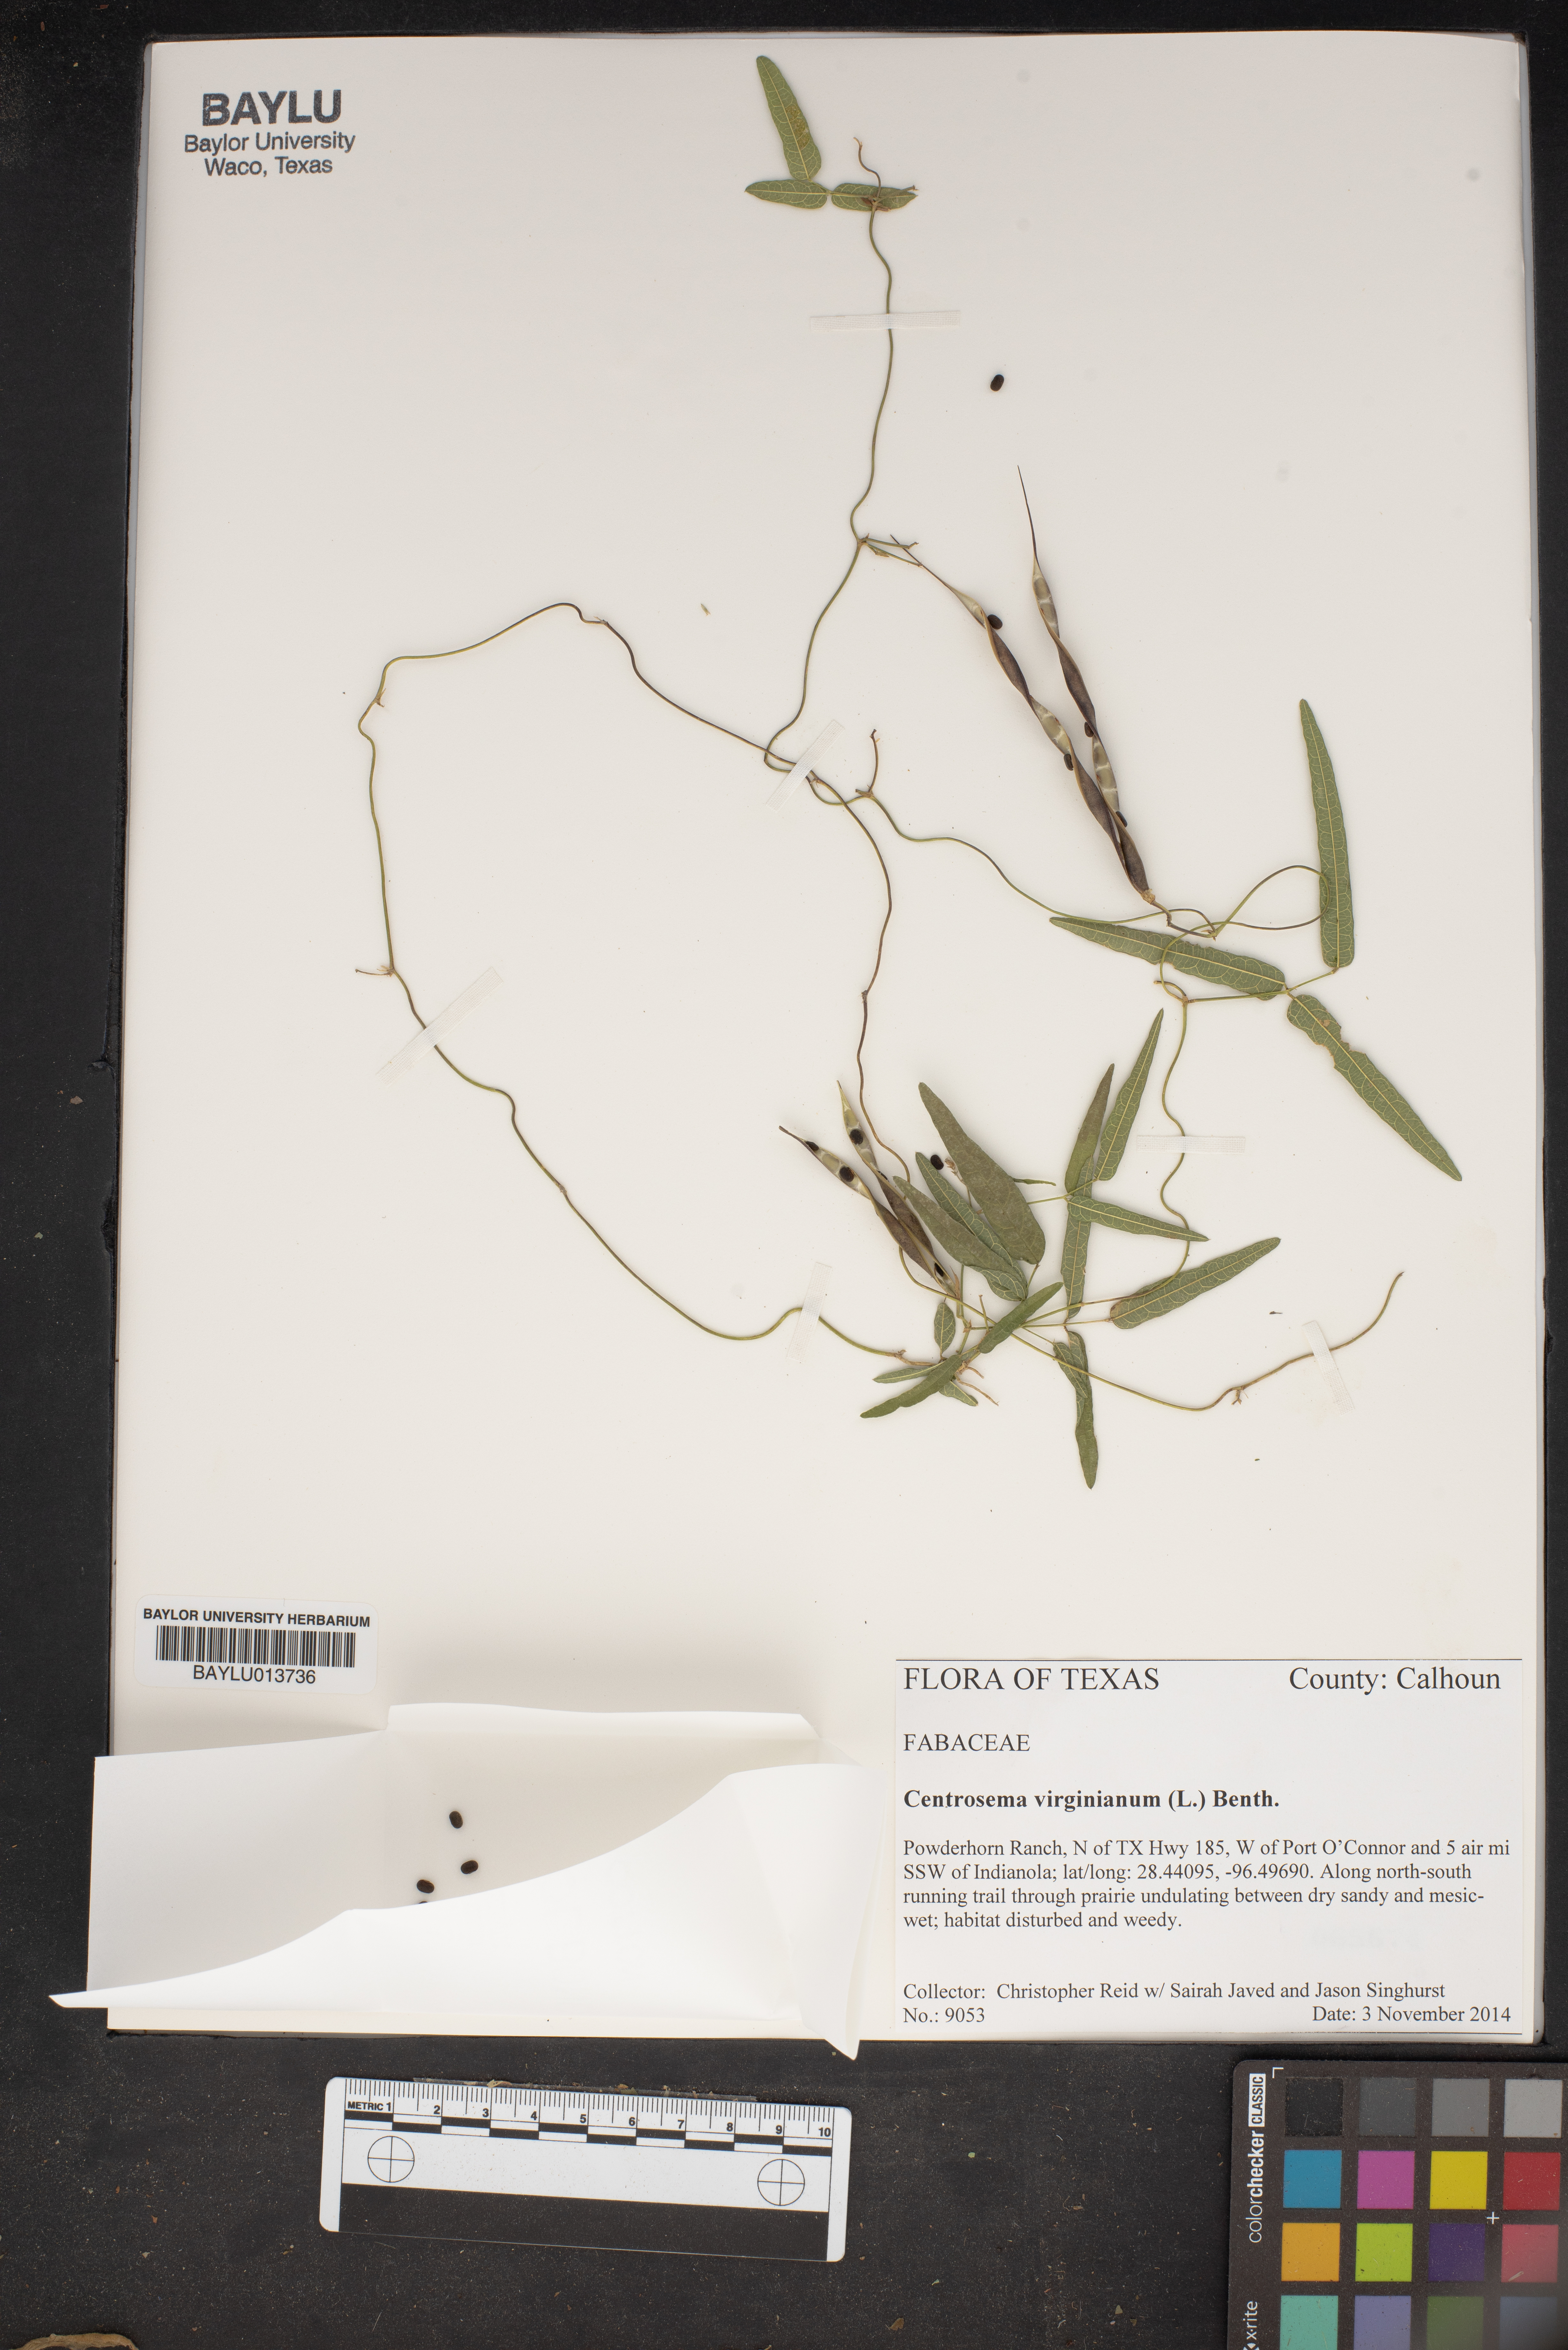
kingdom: Plantae
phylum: Tracheophyta
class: Magnoliopsida
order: Fabales
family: Fabaceae
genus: Centrosema
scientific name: Centrosema virginianum
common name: Butterfly-pea
